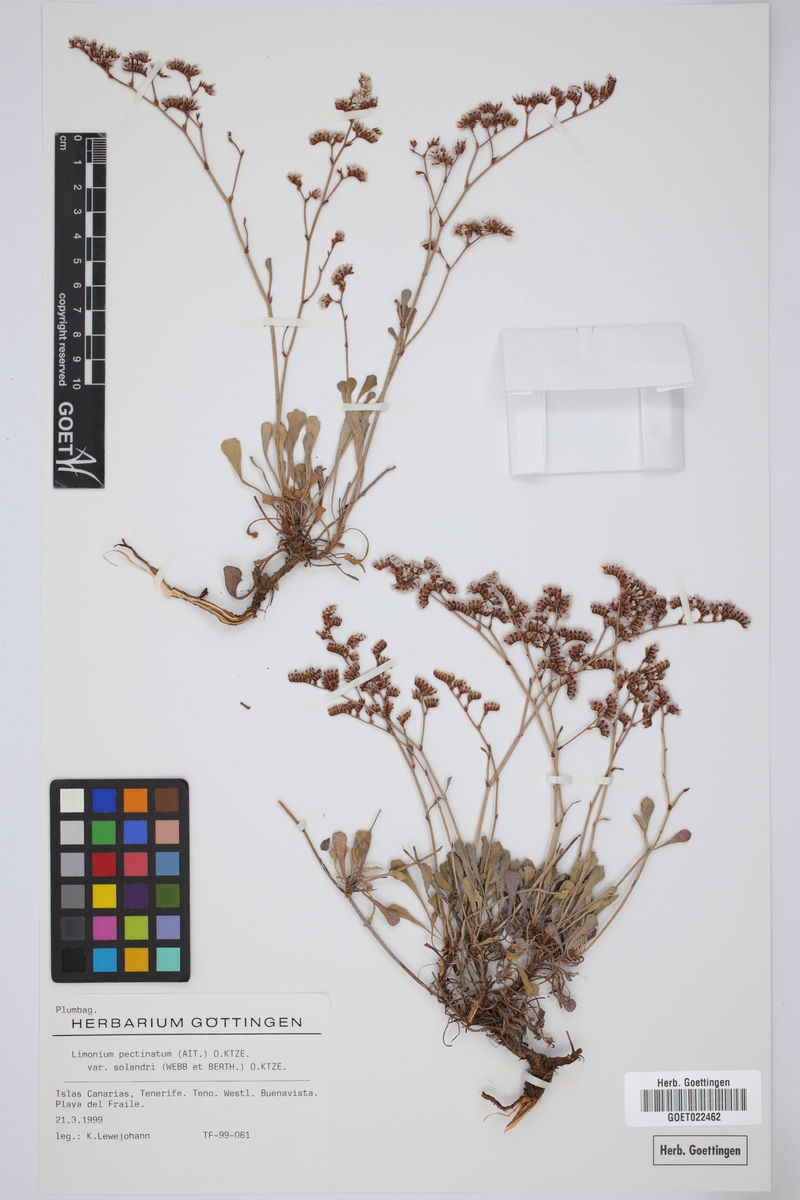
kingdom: Plantae
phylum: Tracheophyta
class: Magnoliopsida
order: Caryophyllales
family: Plumbaginaceae
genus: Limonium
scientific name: Limonium pectinatum
